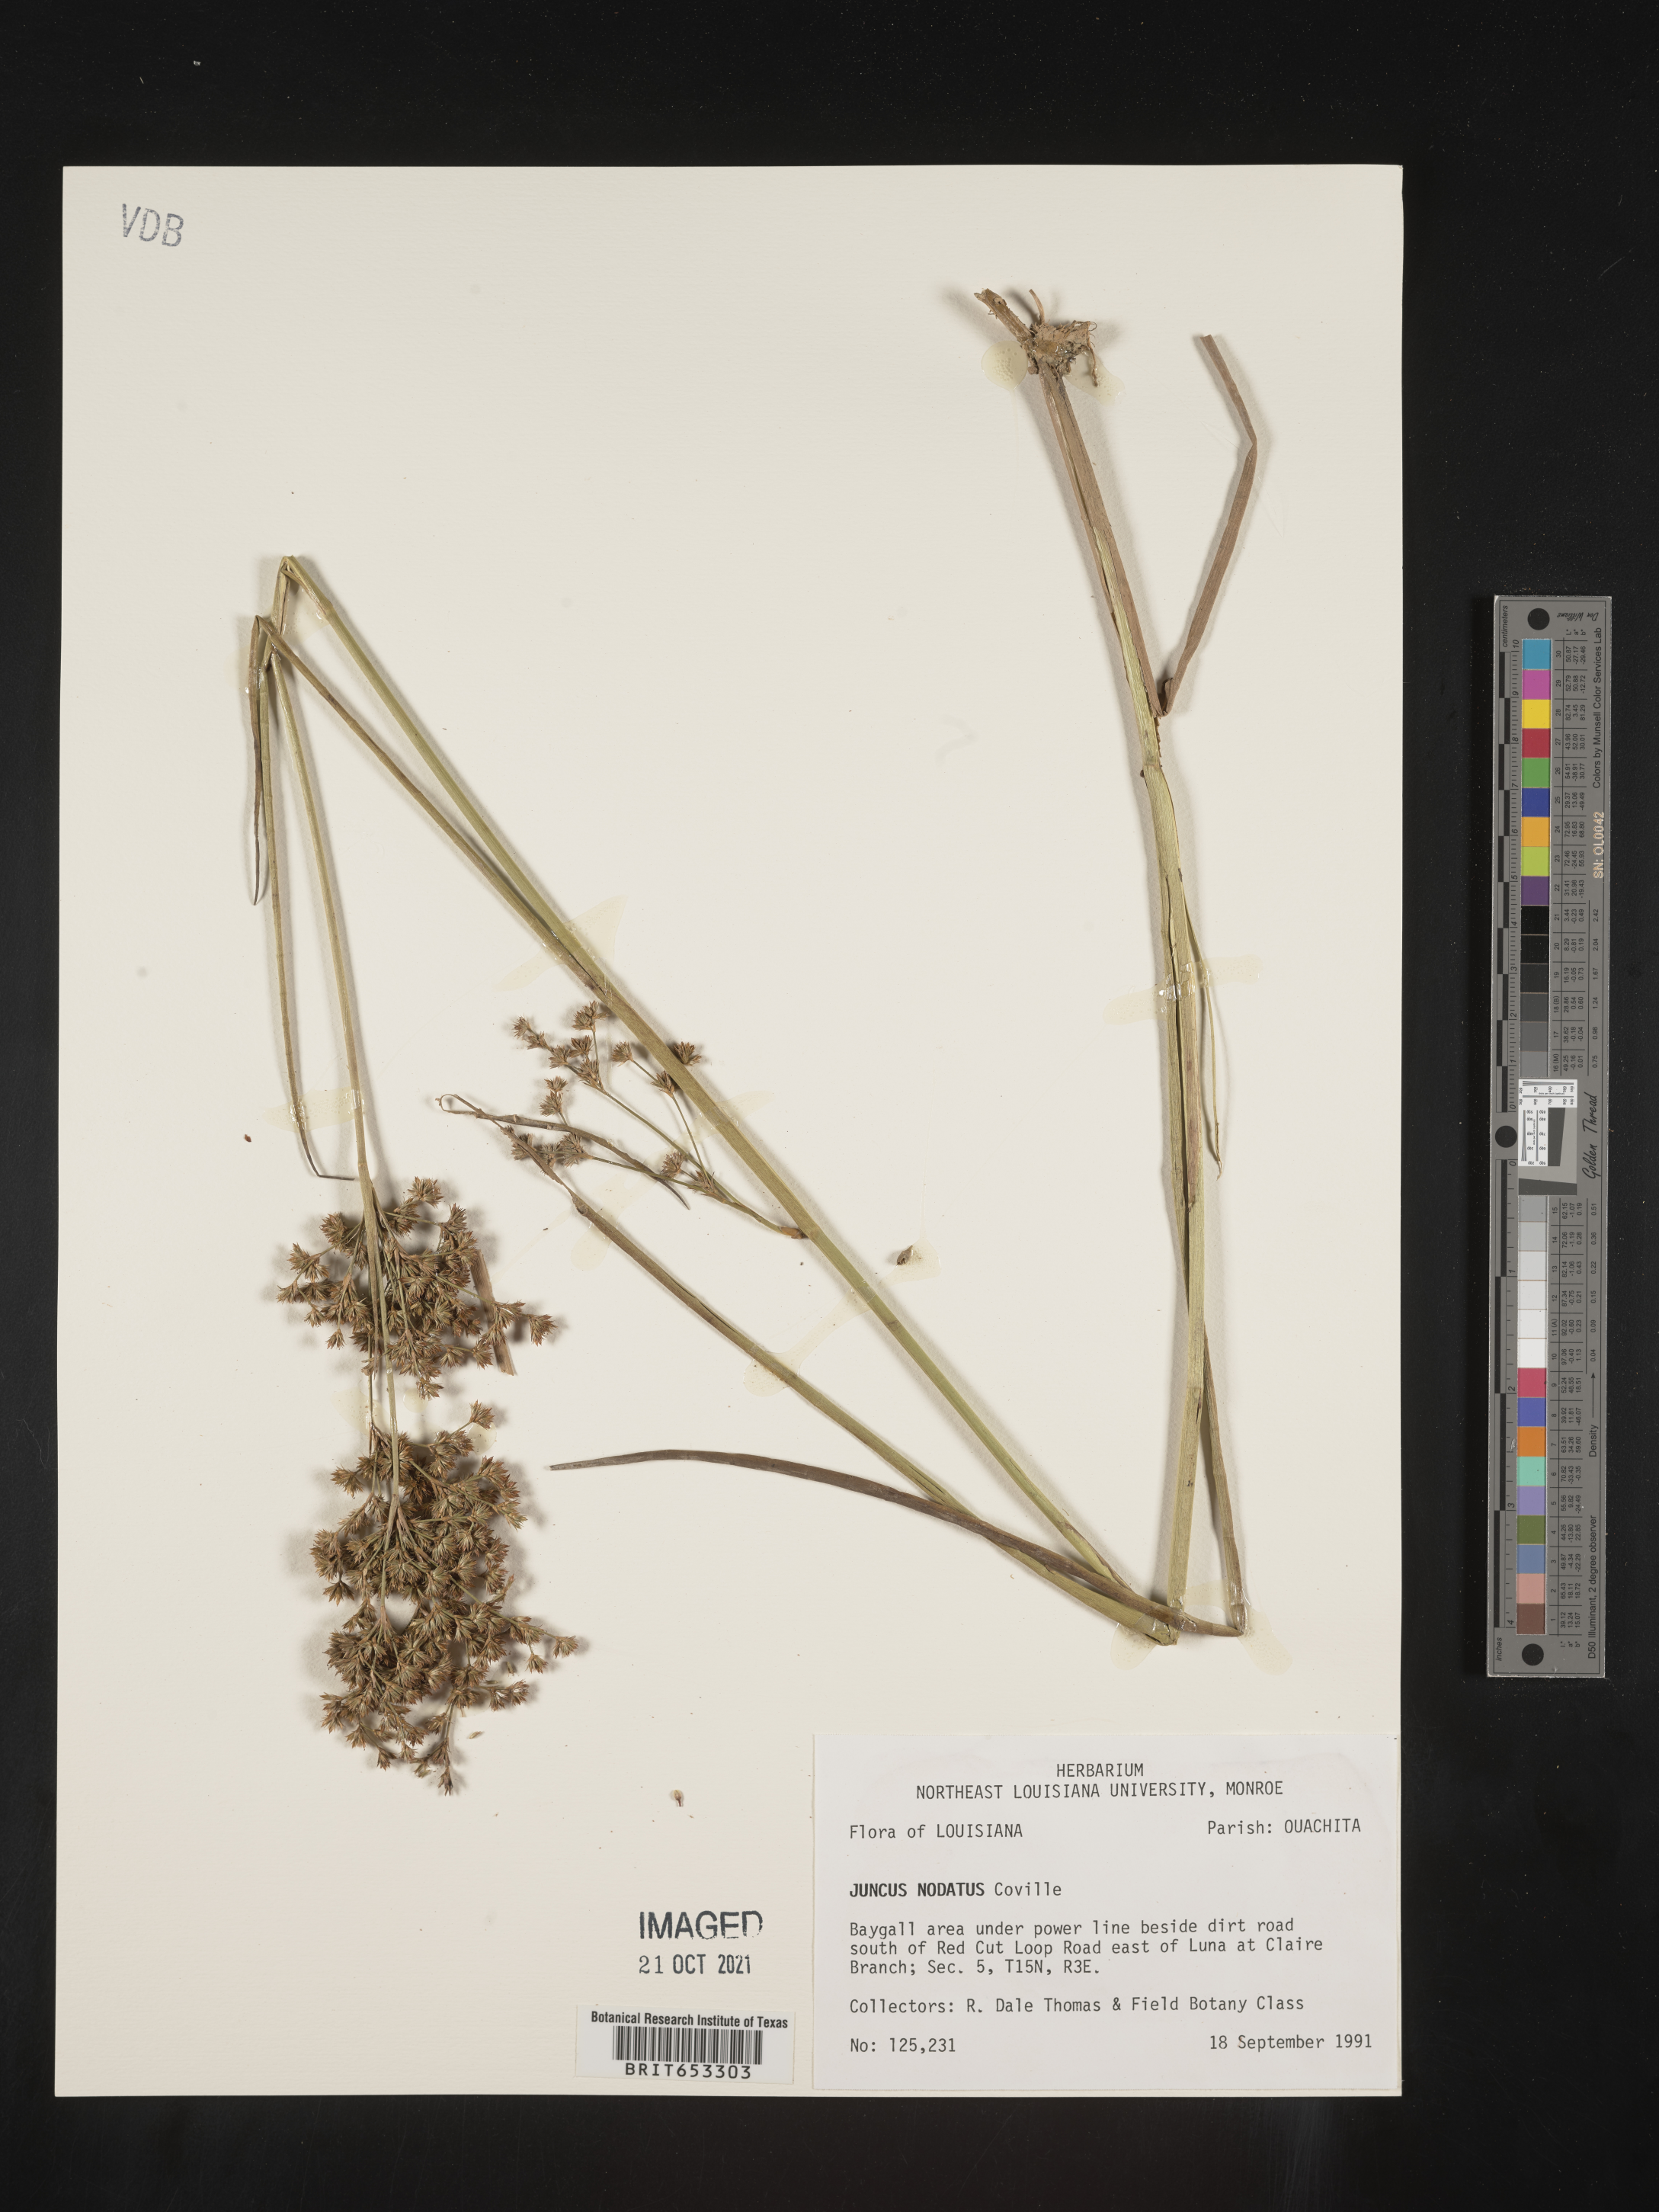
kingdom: Plantae
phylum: Tracheophyta
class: Liliopsida
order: Poales
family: Juncaceae
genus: Juncus
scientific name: Juncus nodatus
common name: Stout rush
